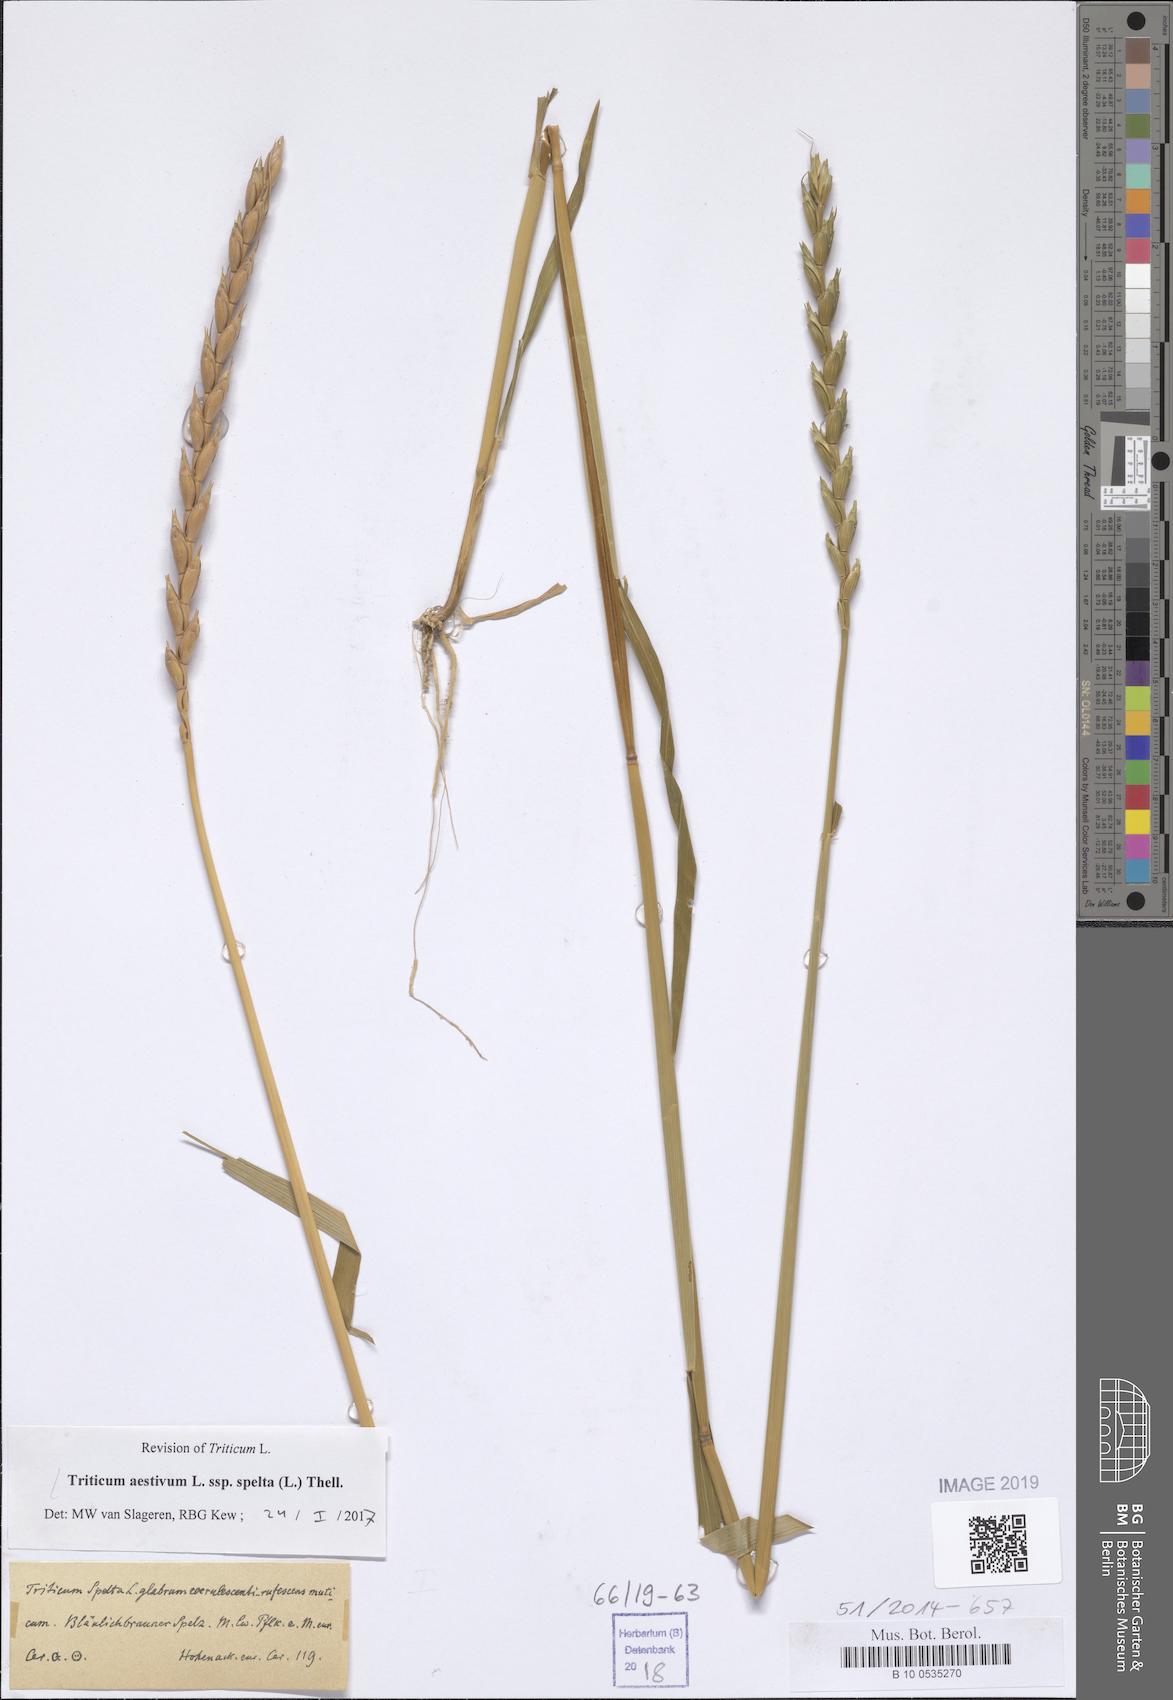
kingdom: Plantae
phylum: Tracheophyta
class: Liliopsida
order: Poales
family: Poaceae
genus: Triticum
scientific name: Triticum aestivum
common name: Common wheat
